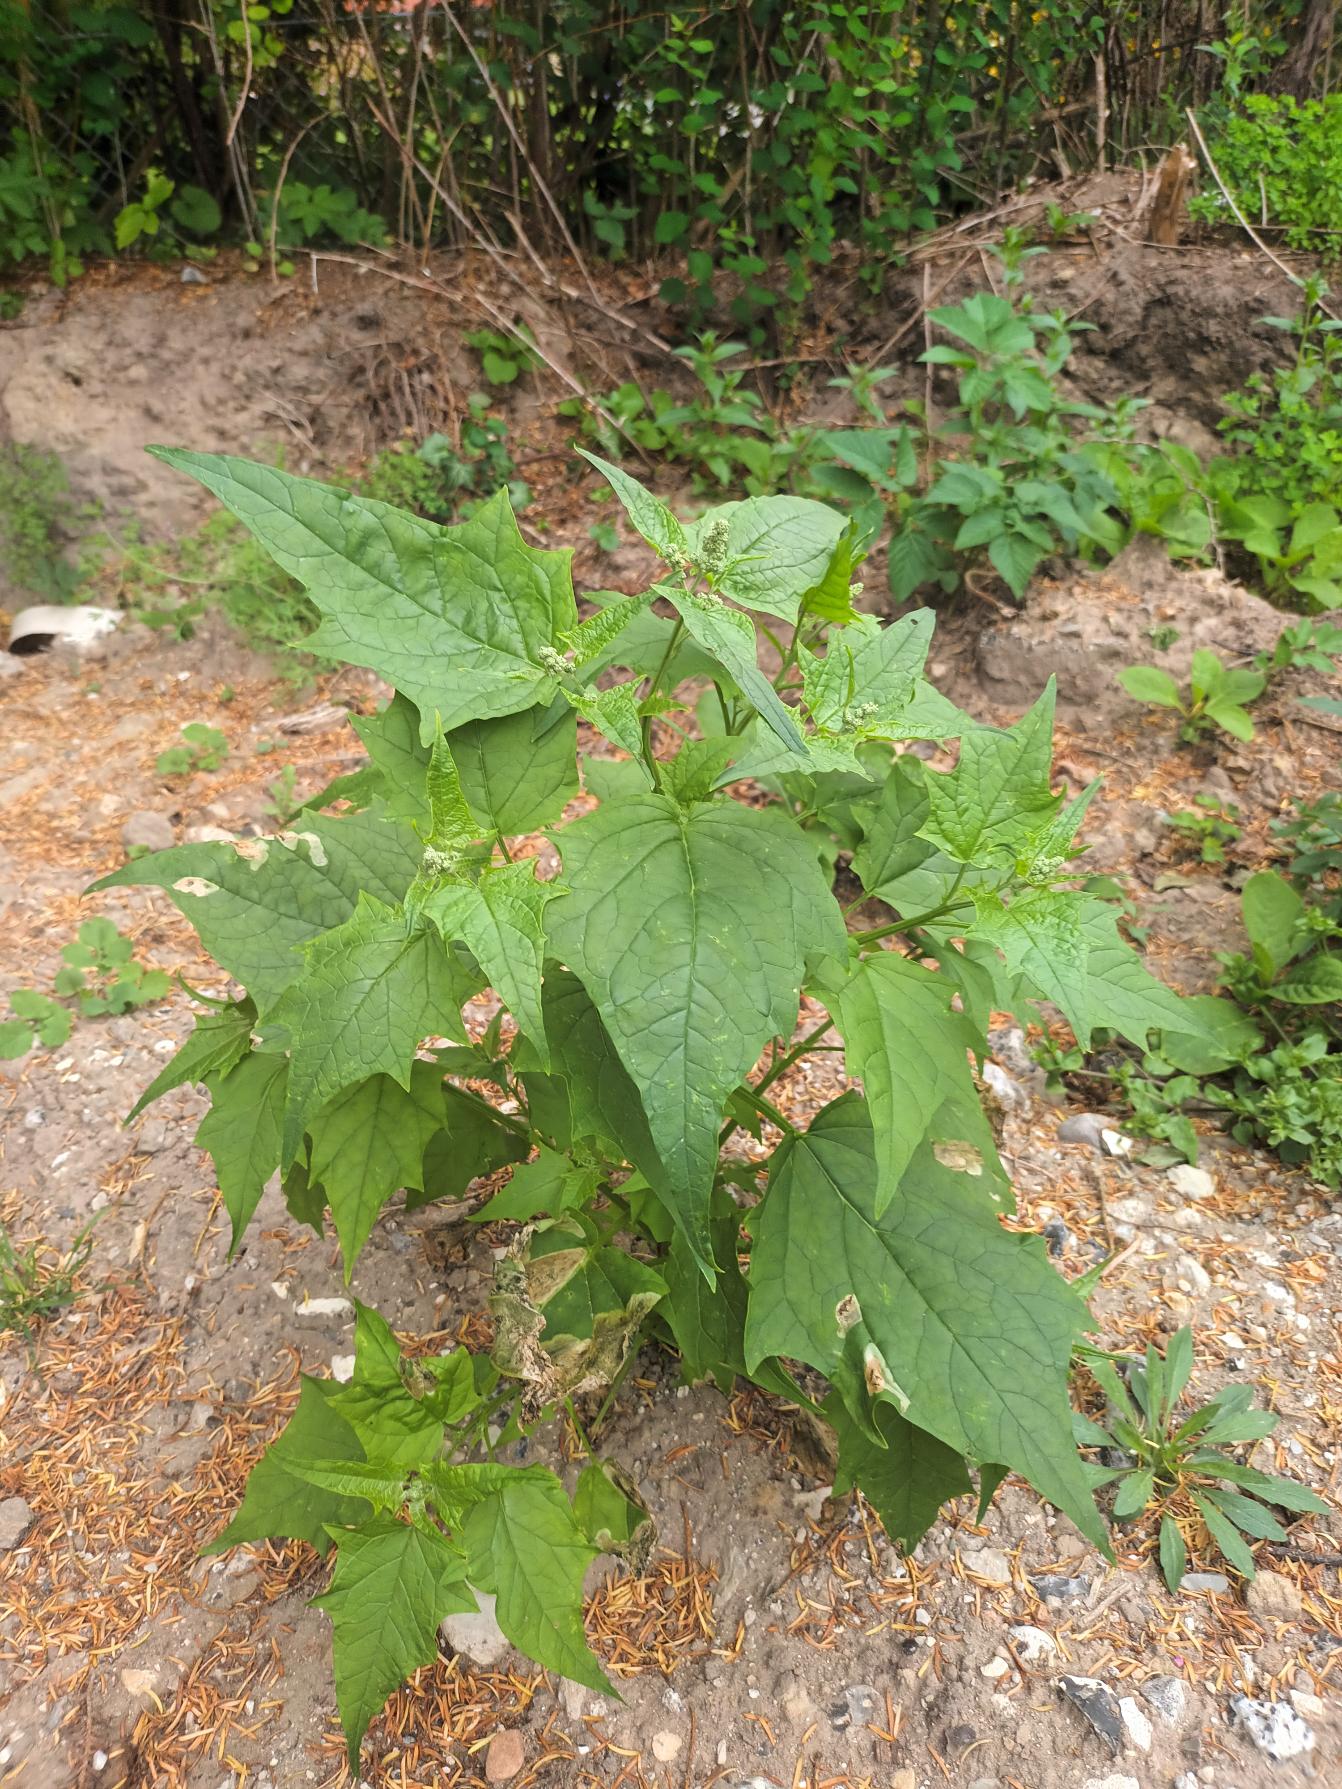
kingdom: Plantae
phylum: Tracheophyta
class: Magnoliopsida
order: Caryophyllales
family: Amaranthaceae
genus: Chenopodiastrum
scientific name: Chenopodiastrum hybridum
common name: Hjertebladet gåsefod
